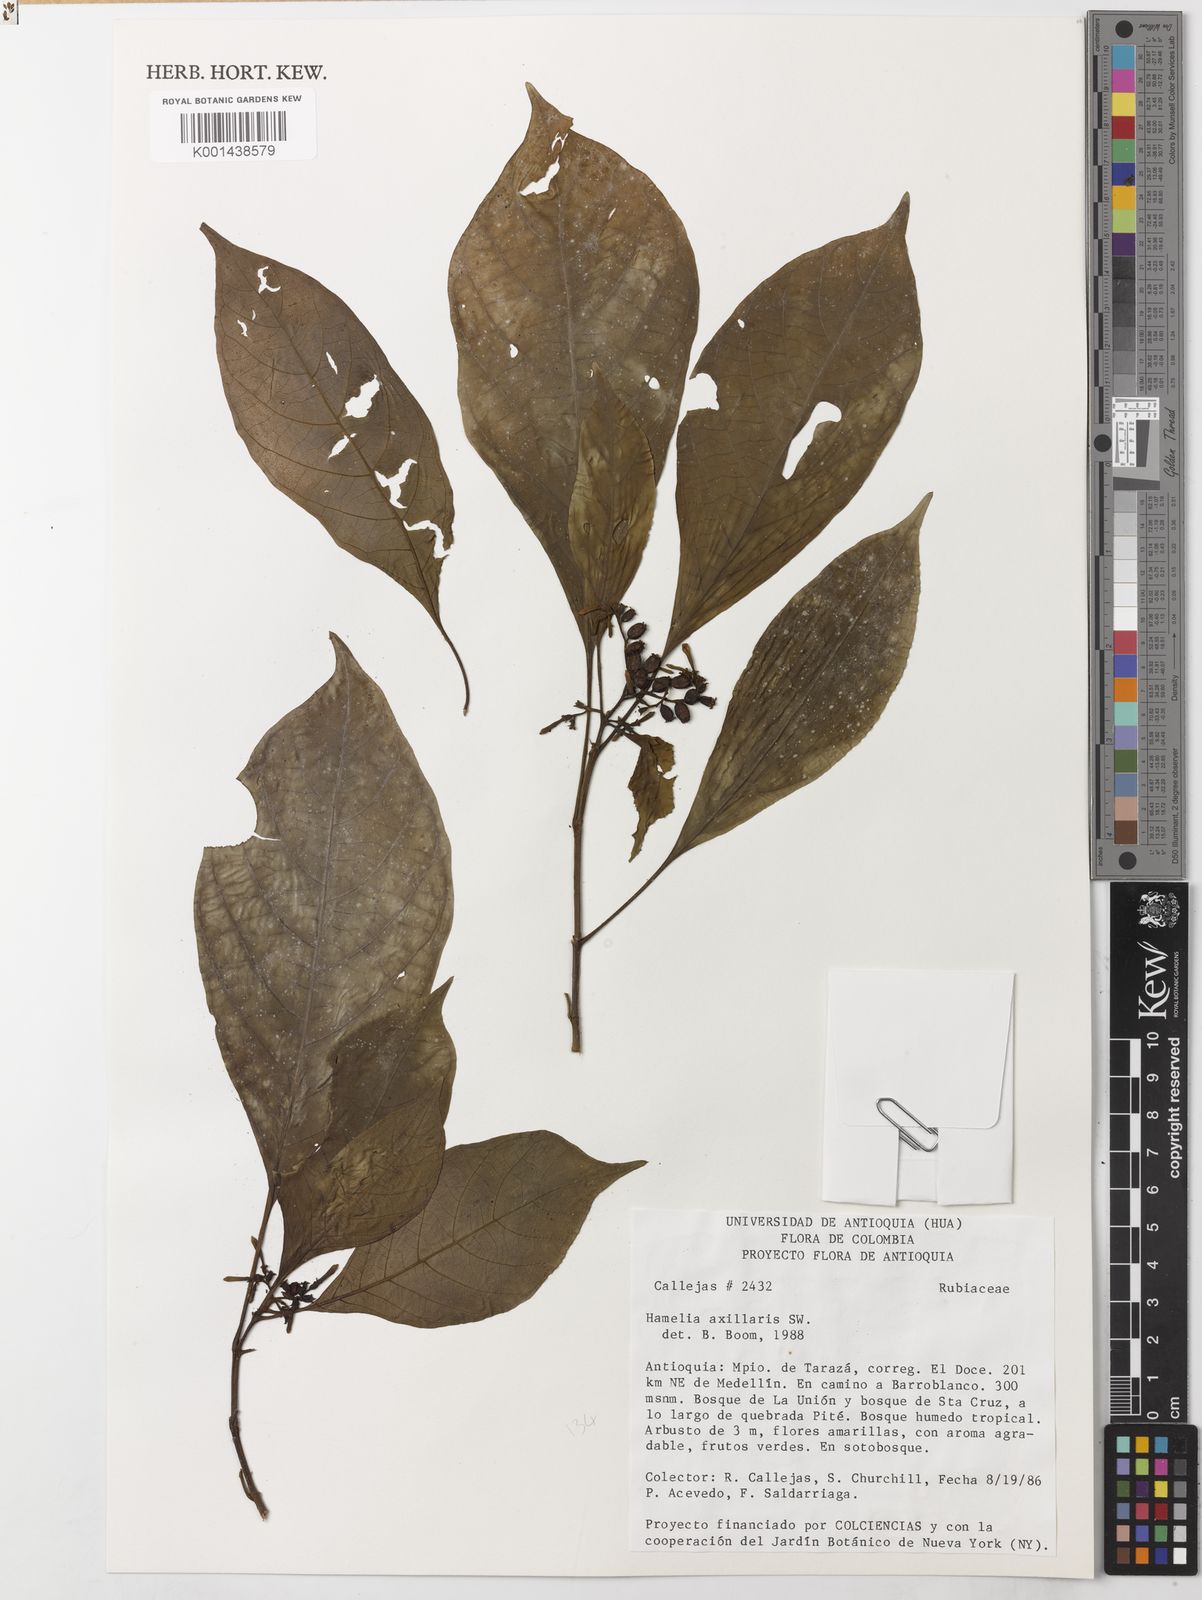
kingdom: Plantae
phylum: Tracheophyta
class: Magnoliopsida
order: Gentianales
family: Rubiaceae
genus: Hamelia
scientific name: Hamelia axillaris
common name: Balsamillo
